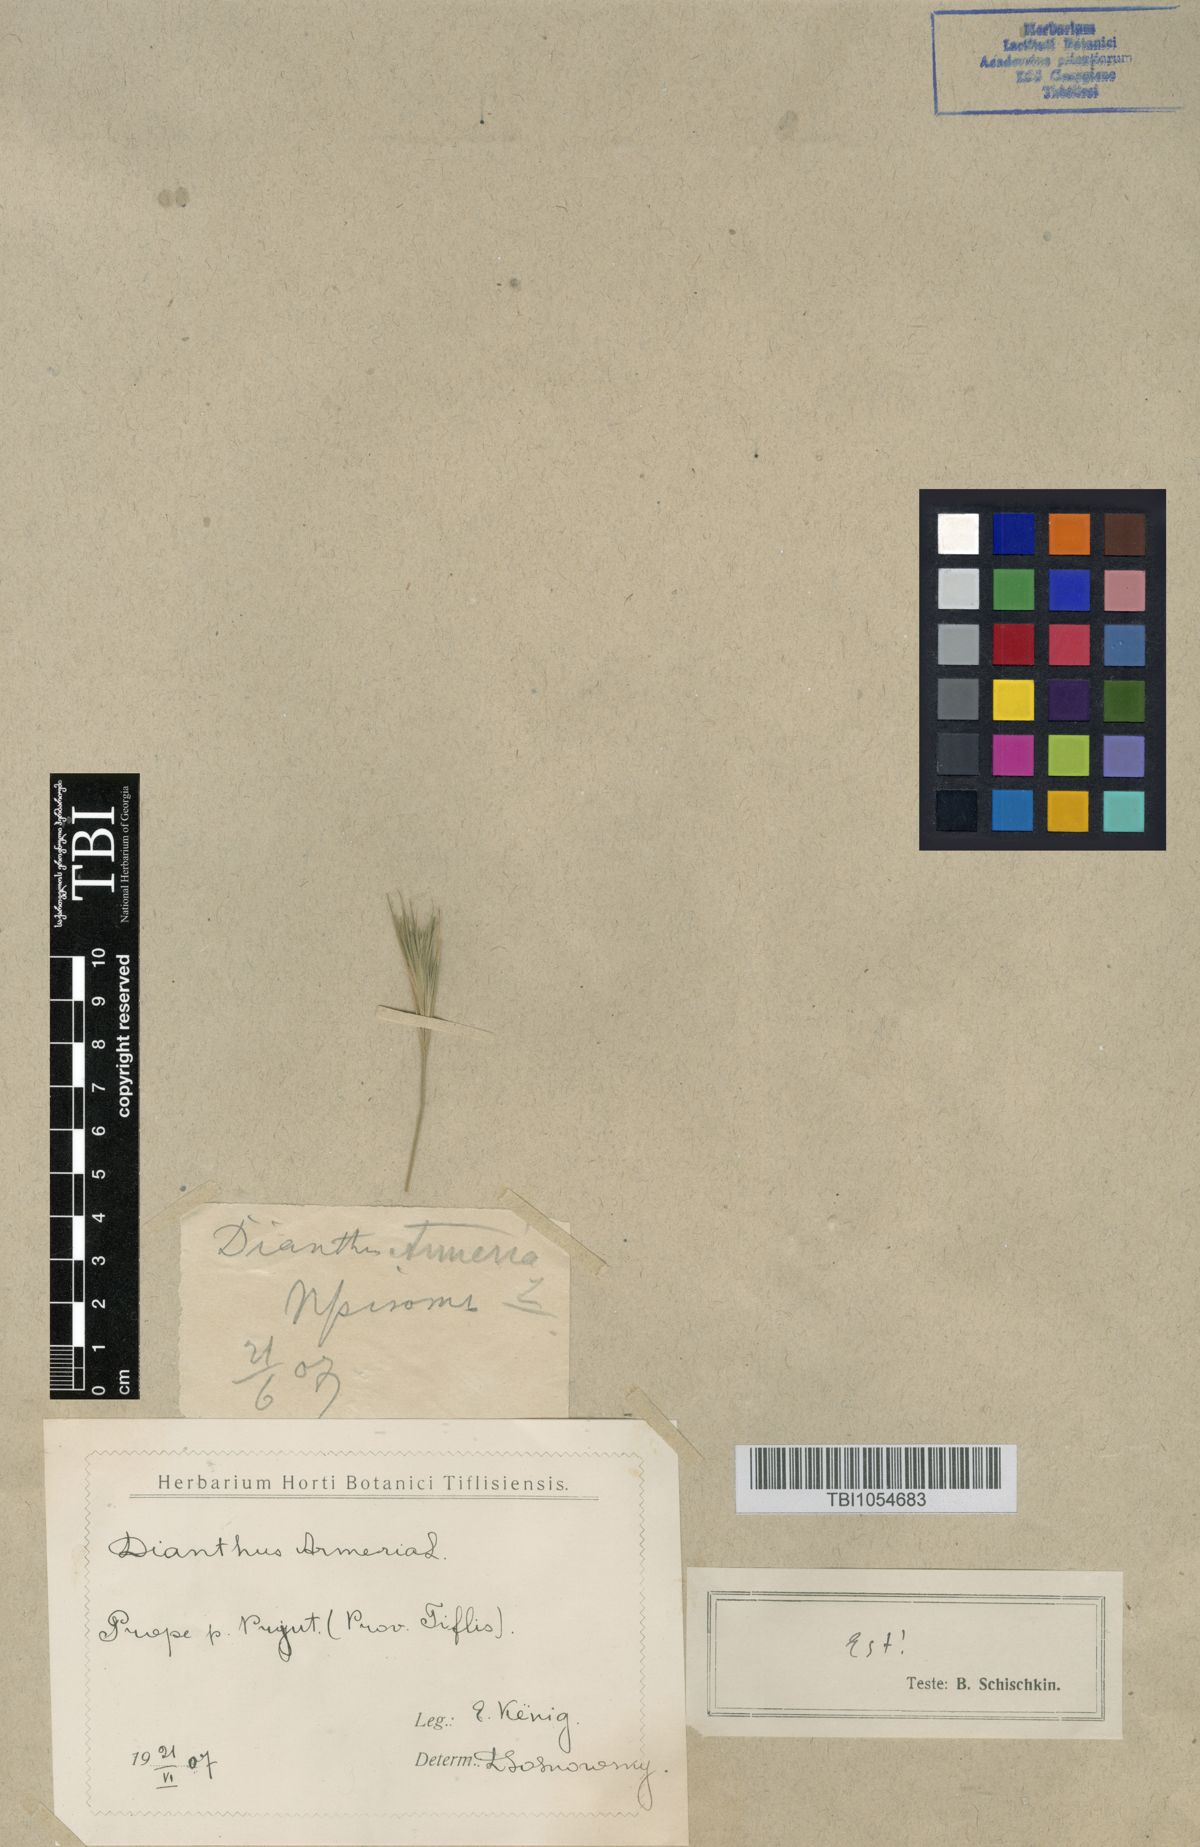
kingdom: Plantae
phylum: Tracheophyta
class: Magnoliopsida
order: Caryophyllales
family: Caryophyllaceae
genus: Dianthus
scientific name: Dianthus armeria
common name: Deptford pink
